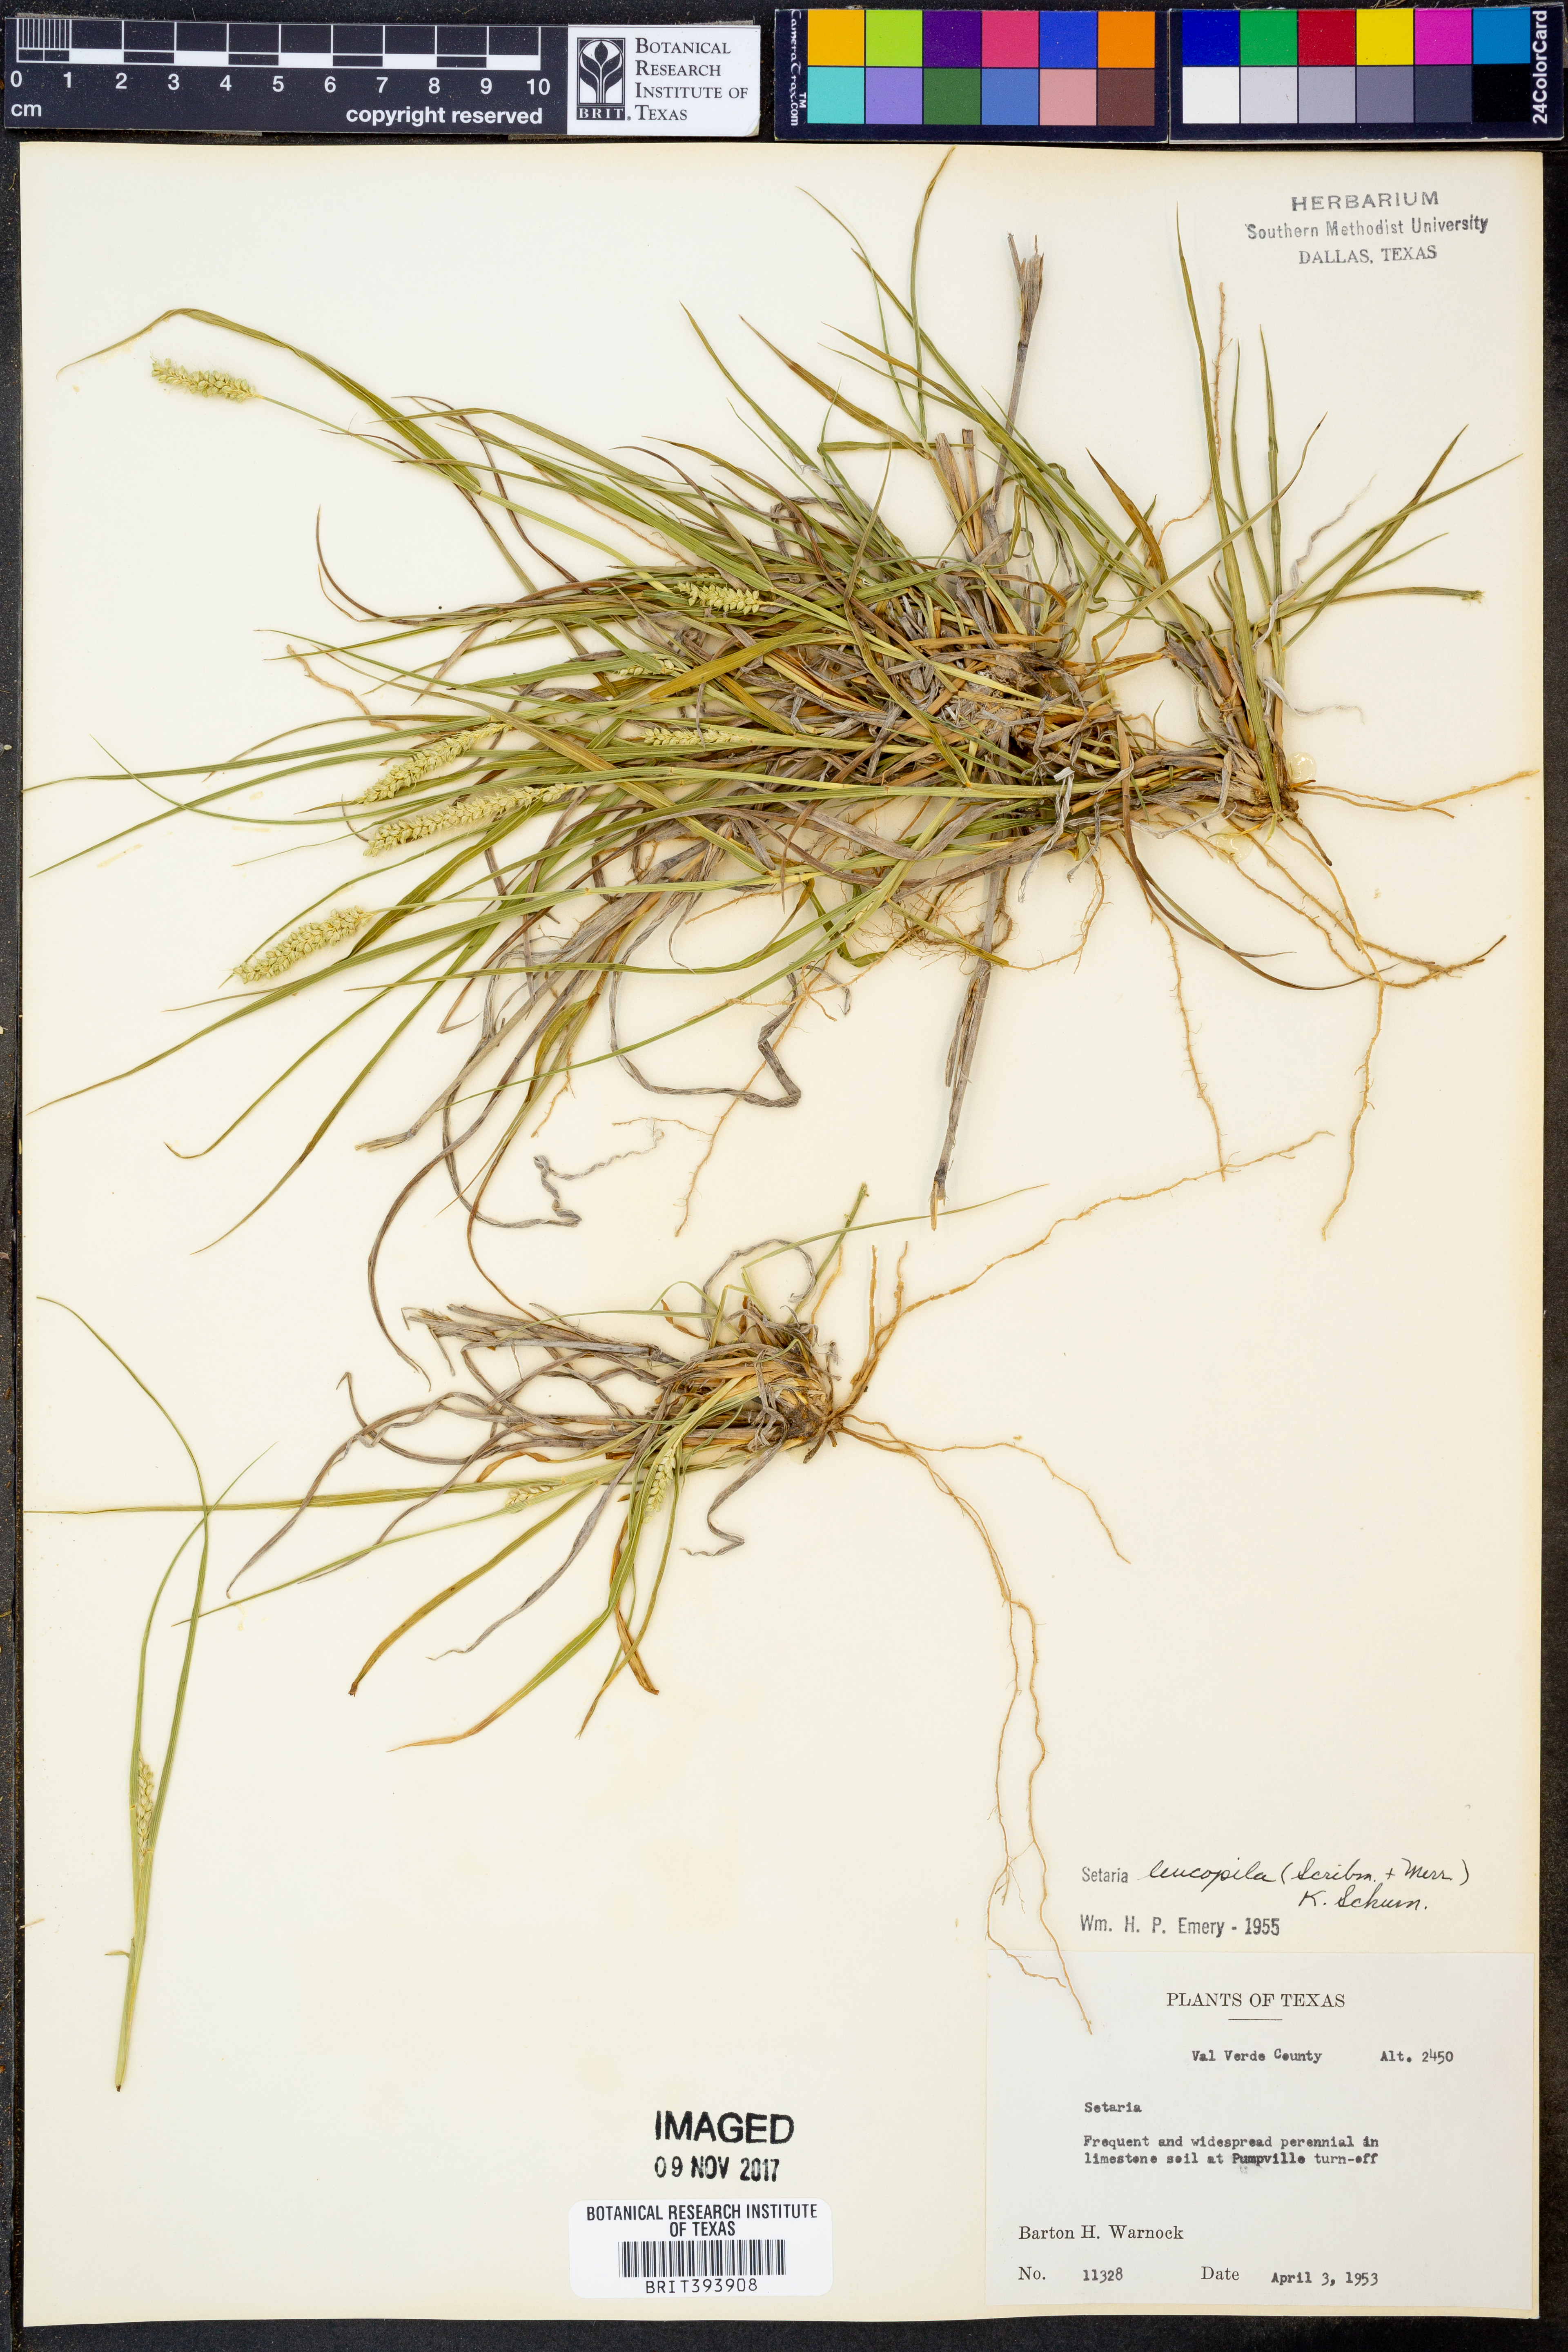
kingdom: Plantae
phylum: Tracheophyta
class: Liliopsida
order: Poales
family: Poaceae
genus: Setaria
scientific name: Setaria leucopila
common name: Plains bristle grass
